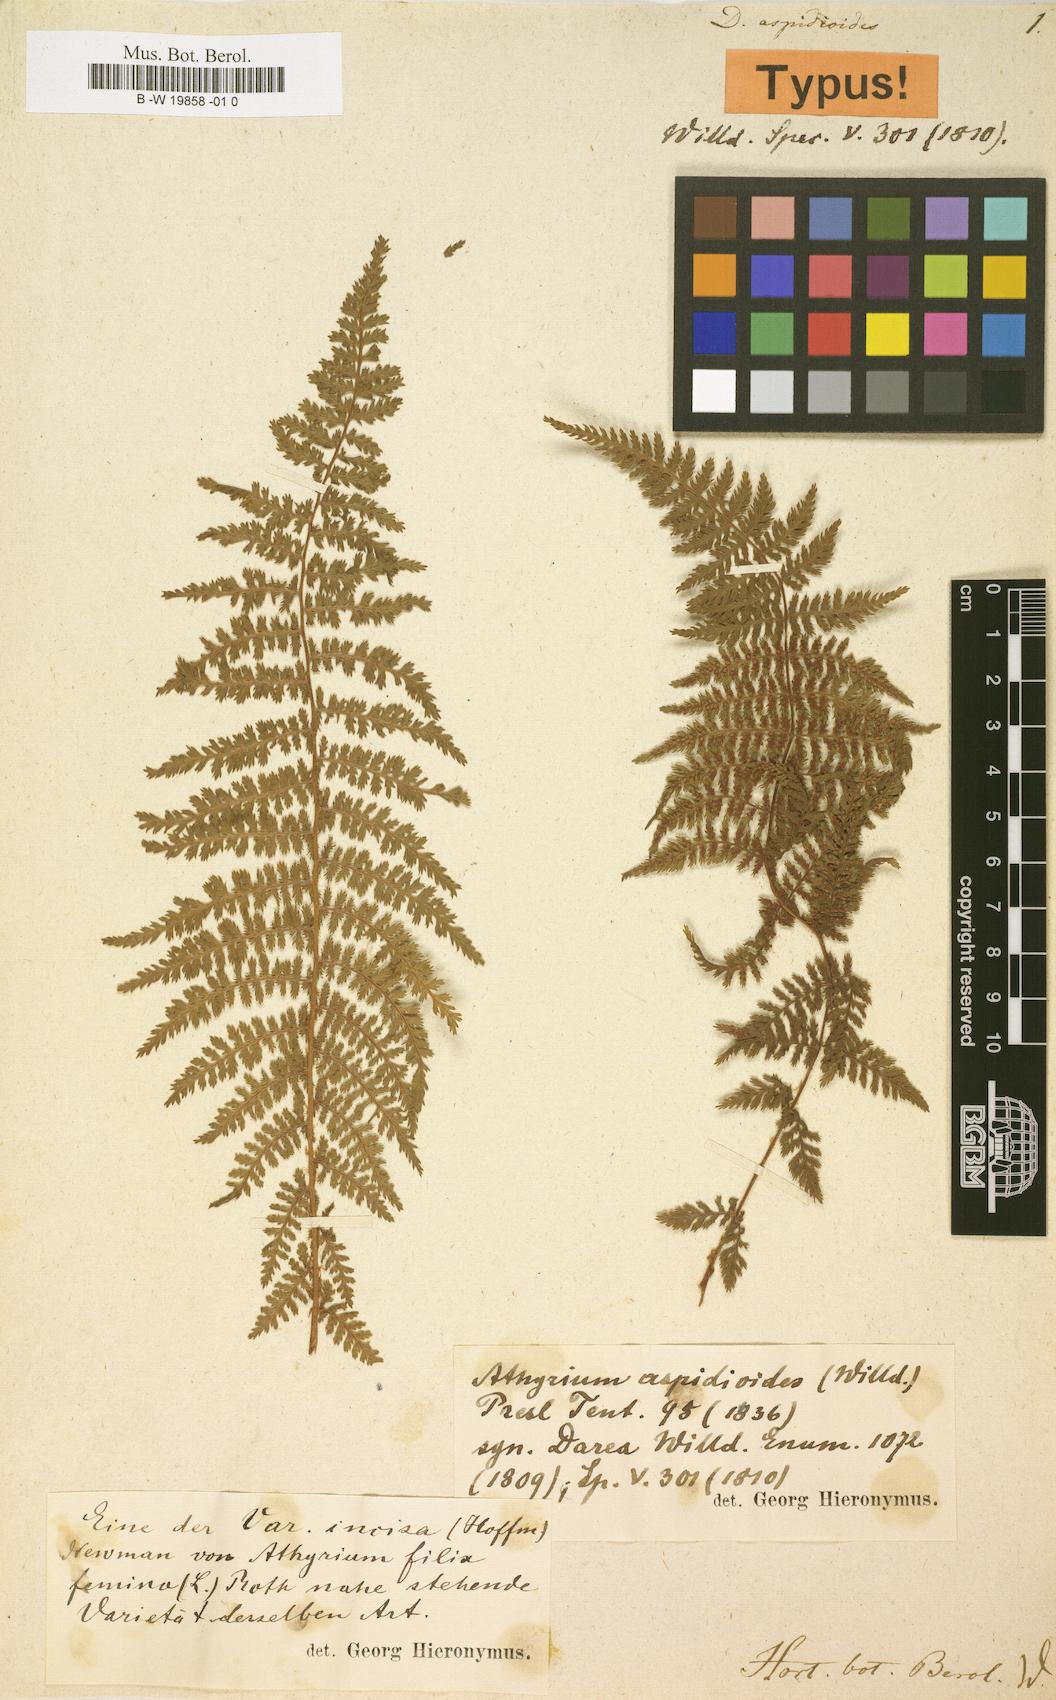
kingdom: Plantae
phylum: Tracheophyta
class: Polypodiopsida
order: Polypodiales
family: Athyriaceae
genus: Athyrium
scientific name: Athyrium newtonii
